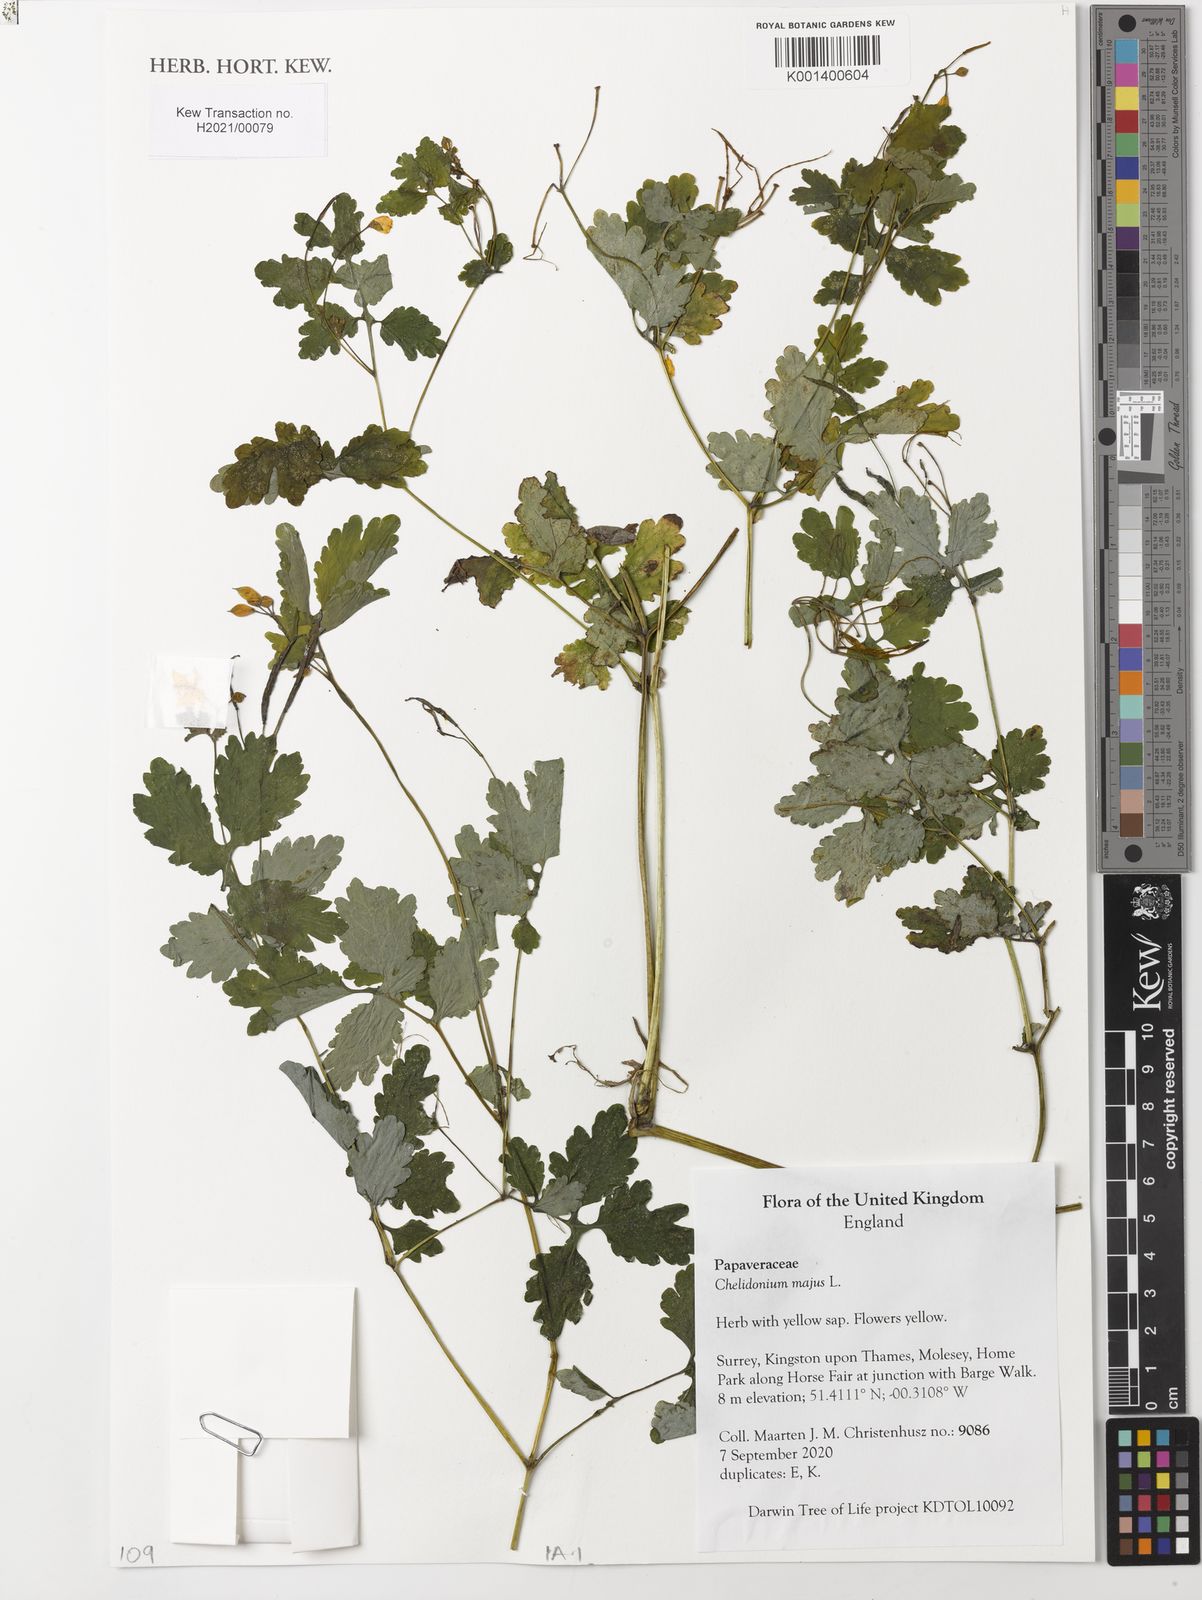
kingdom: Plantae
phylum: Tracheophyta
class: Magnoliopsida
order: Ranunculales
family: Papaveraceae
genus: Chelidonium
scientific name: Chelidonium majus
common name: Greater celandine
